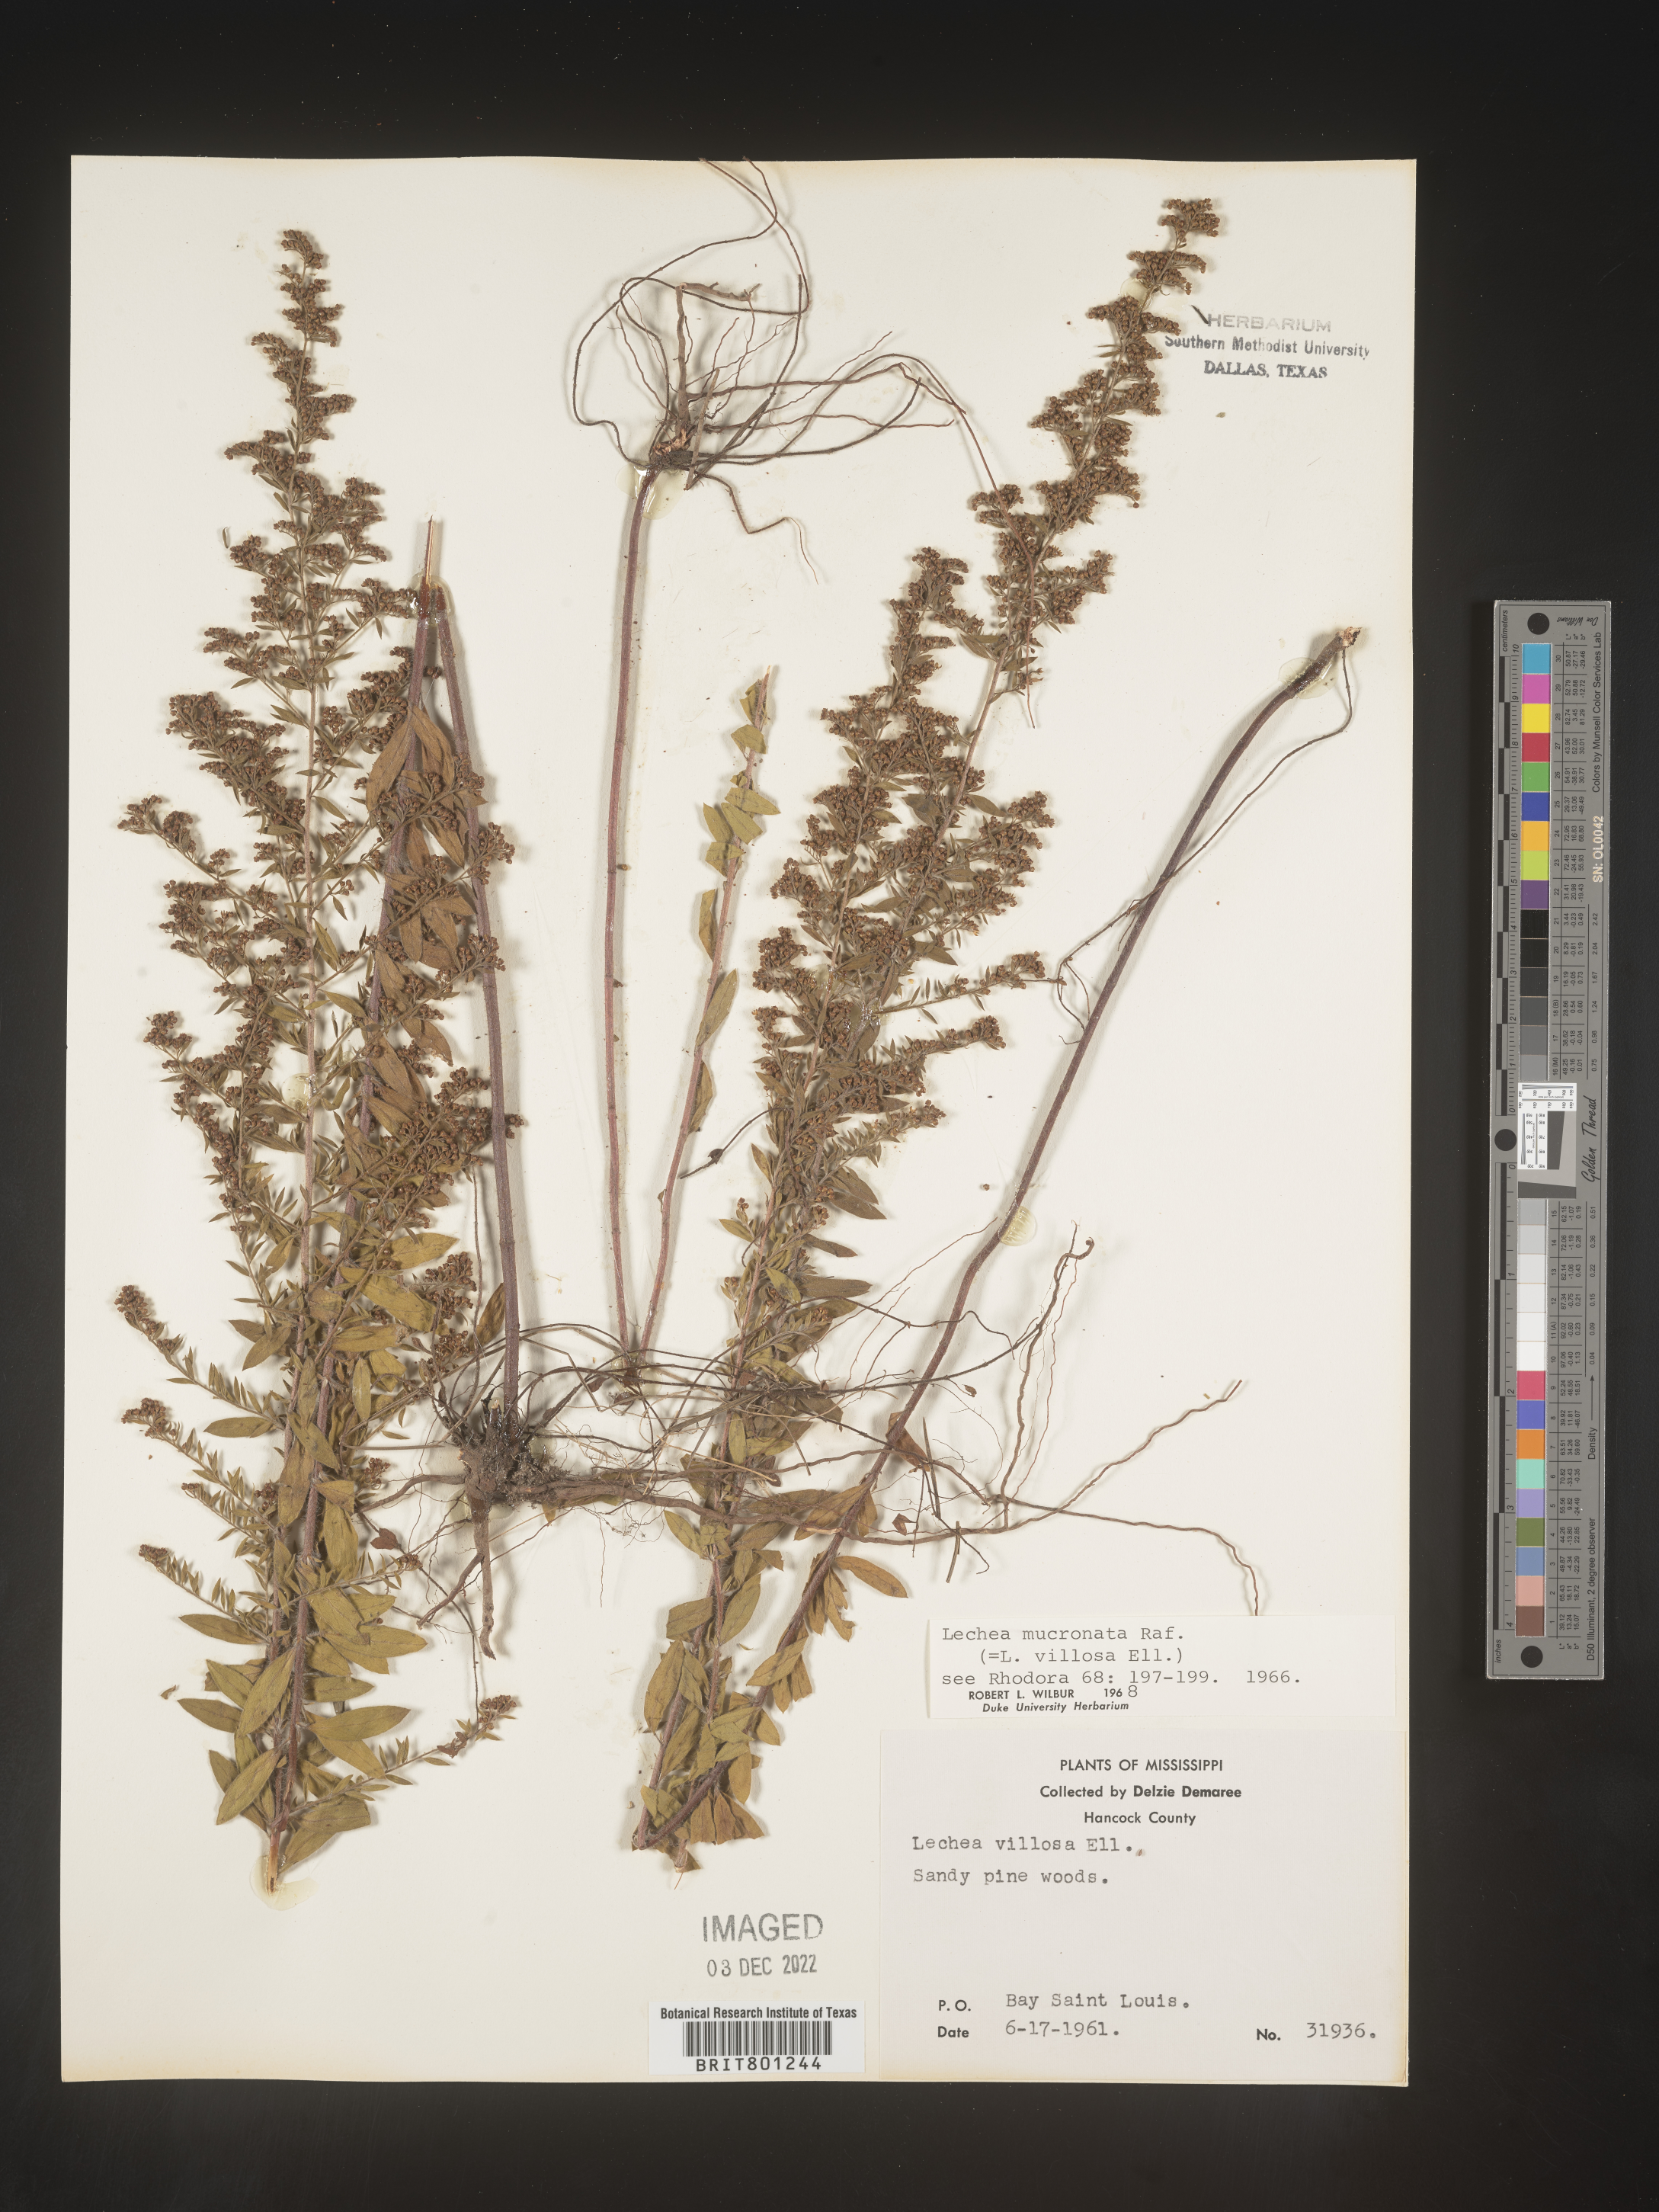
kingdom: Plantae
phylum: Tracheophyta
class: Magnoliopsida
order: Malvales
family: Cistaceae
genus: Lechea
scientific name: Lechea mucronata
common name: Hairy pinweed
